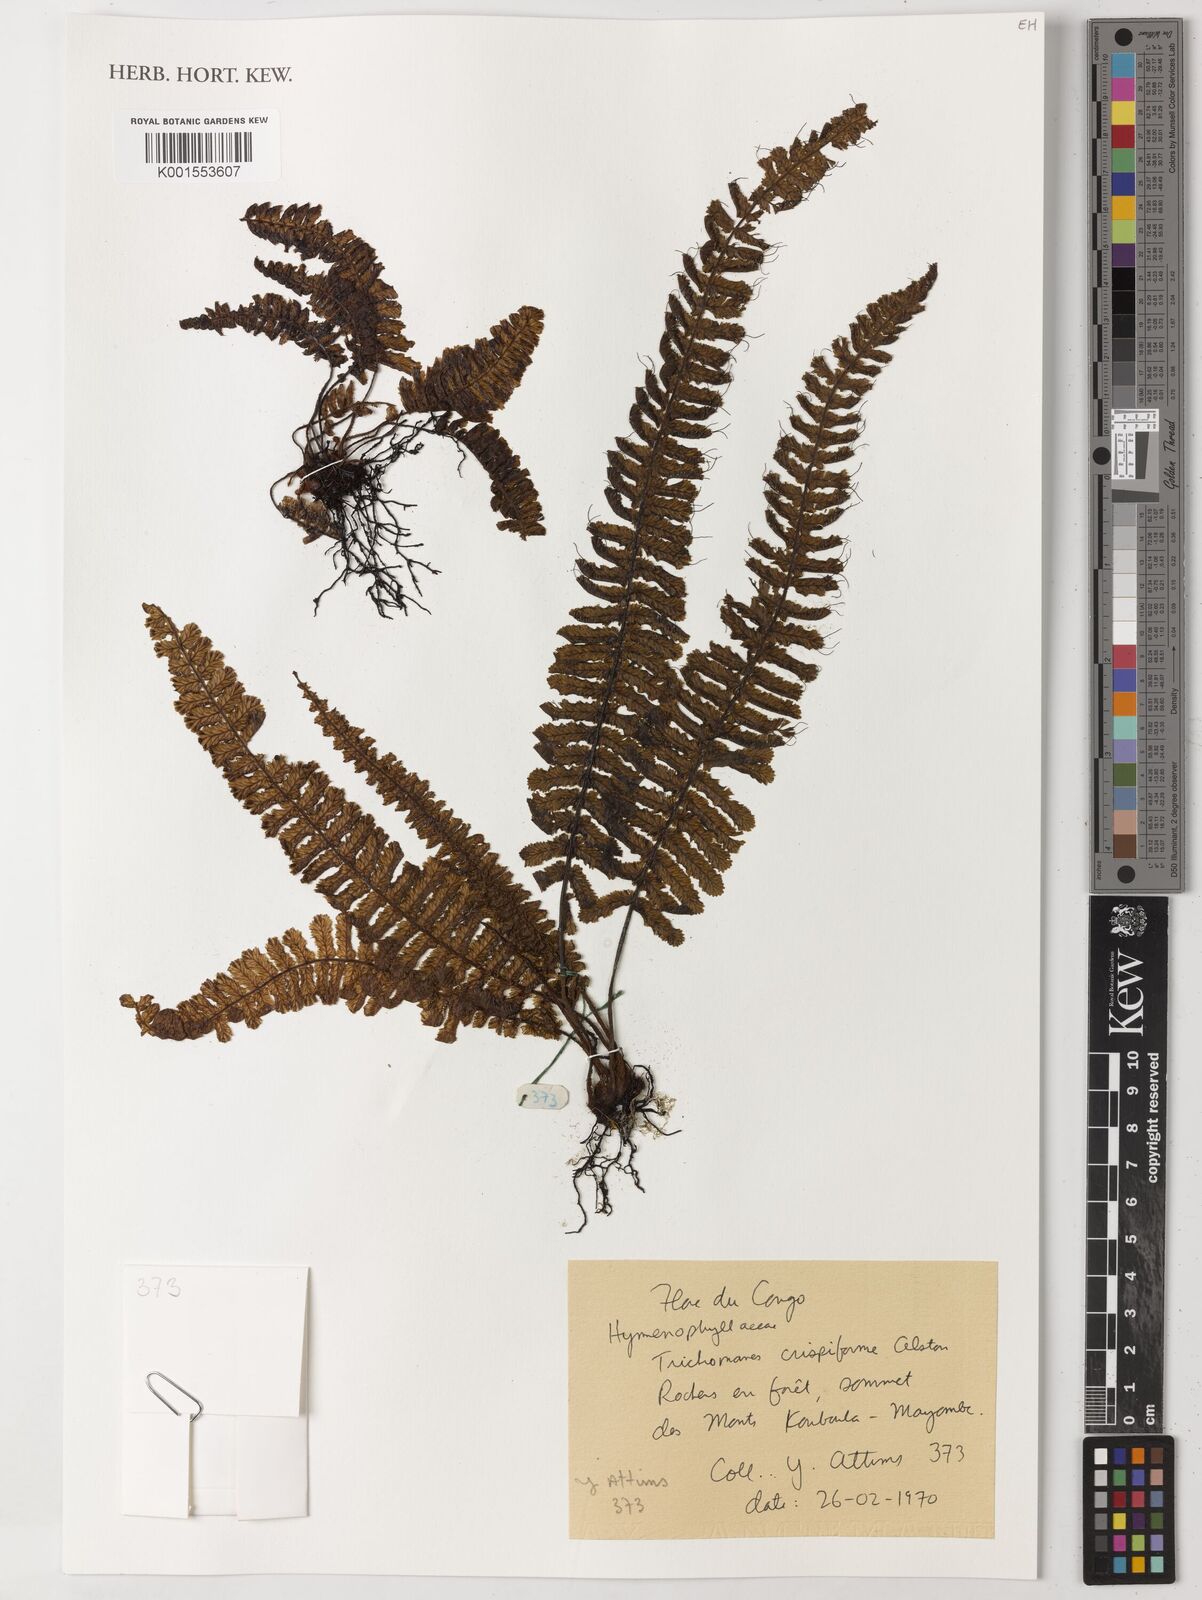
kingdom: Plantae
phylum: Tracheophyta
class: Polypodiopsida
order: Hymenophyllales
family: Hymenophyllaceae
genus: Trichomanes
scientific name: Trichomanes crispiforme
